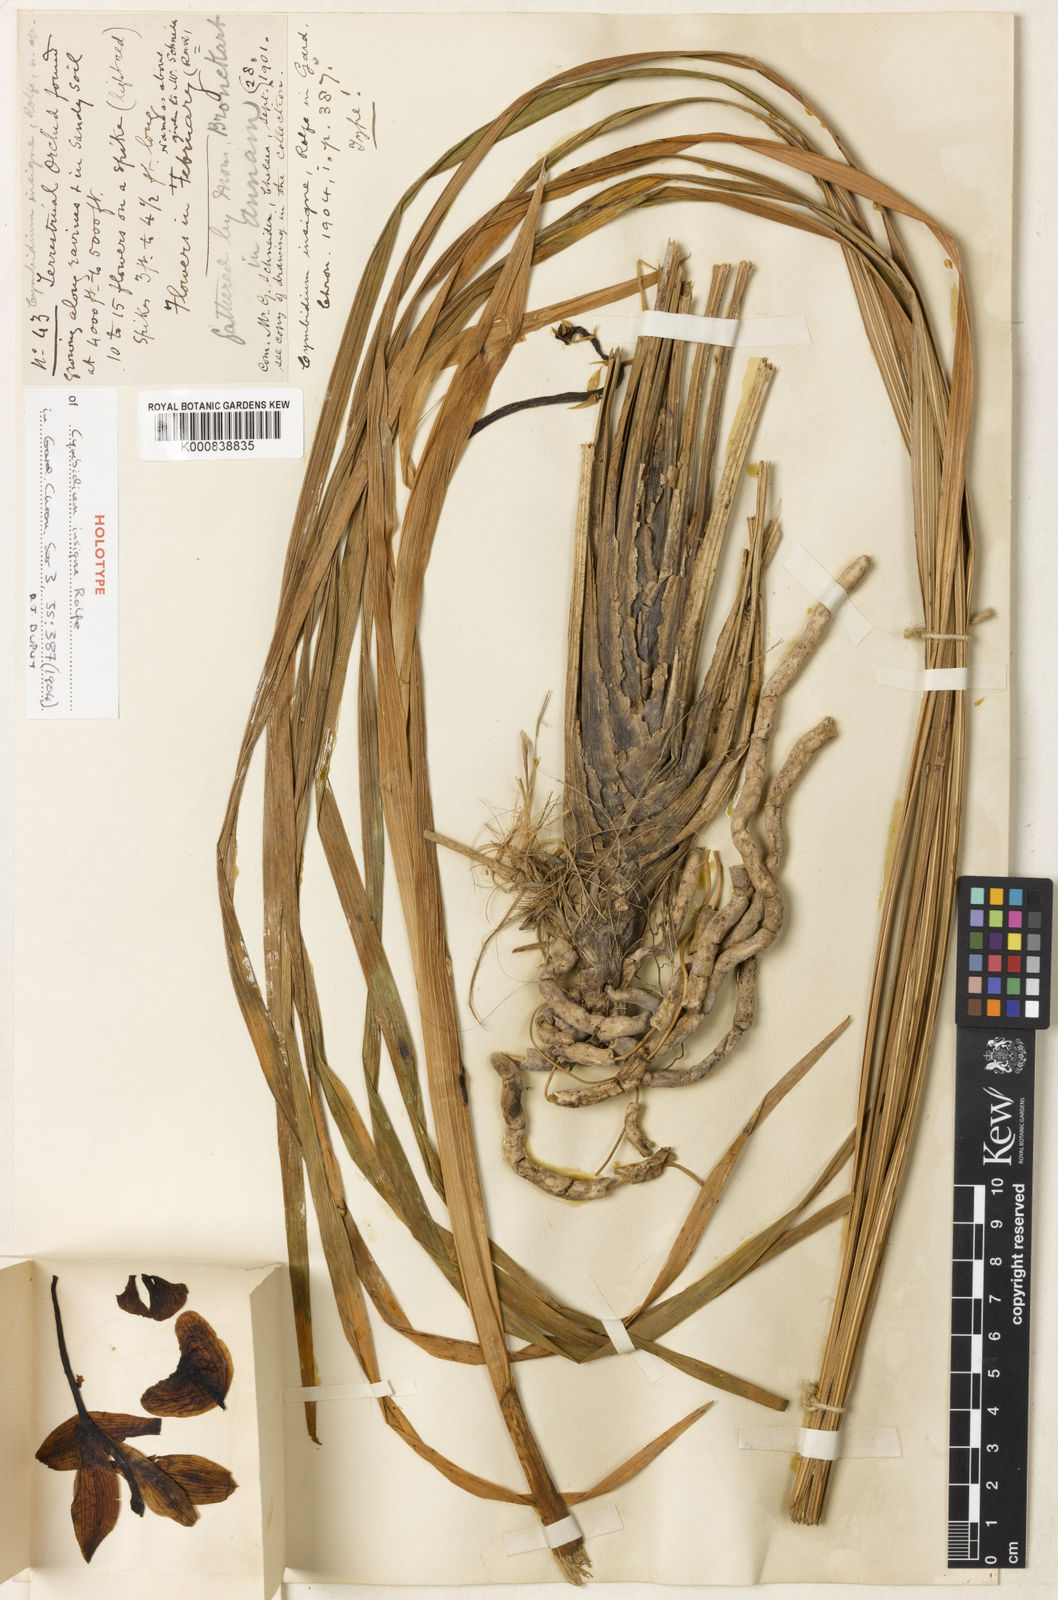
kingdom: Plantae
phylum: Tracheophyta
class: Liliopsida
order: Asparagales
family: Orchidaceae
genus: Cymbidium
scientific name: Cymbidium insigne
